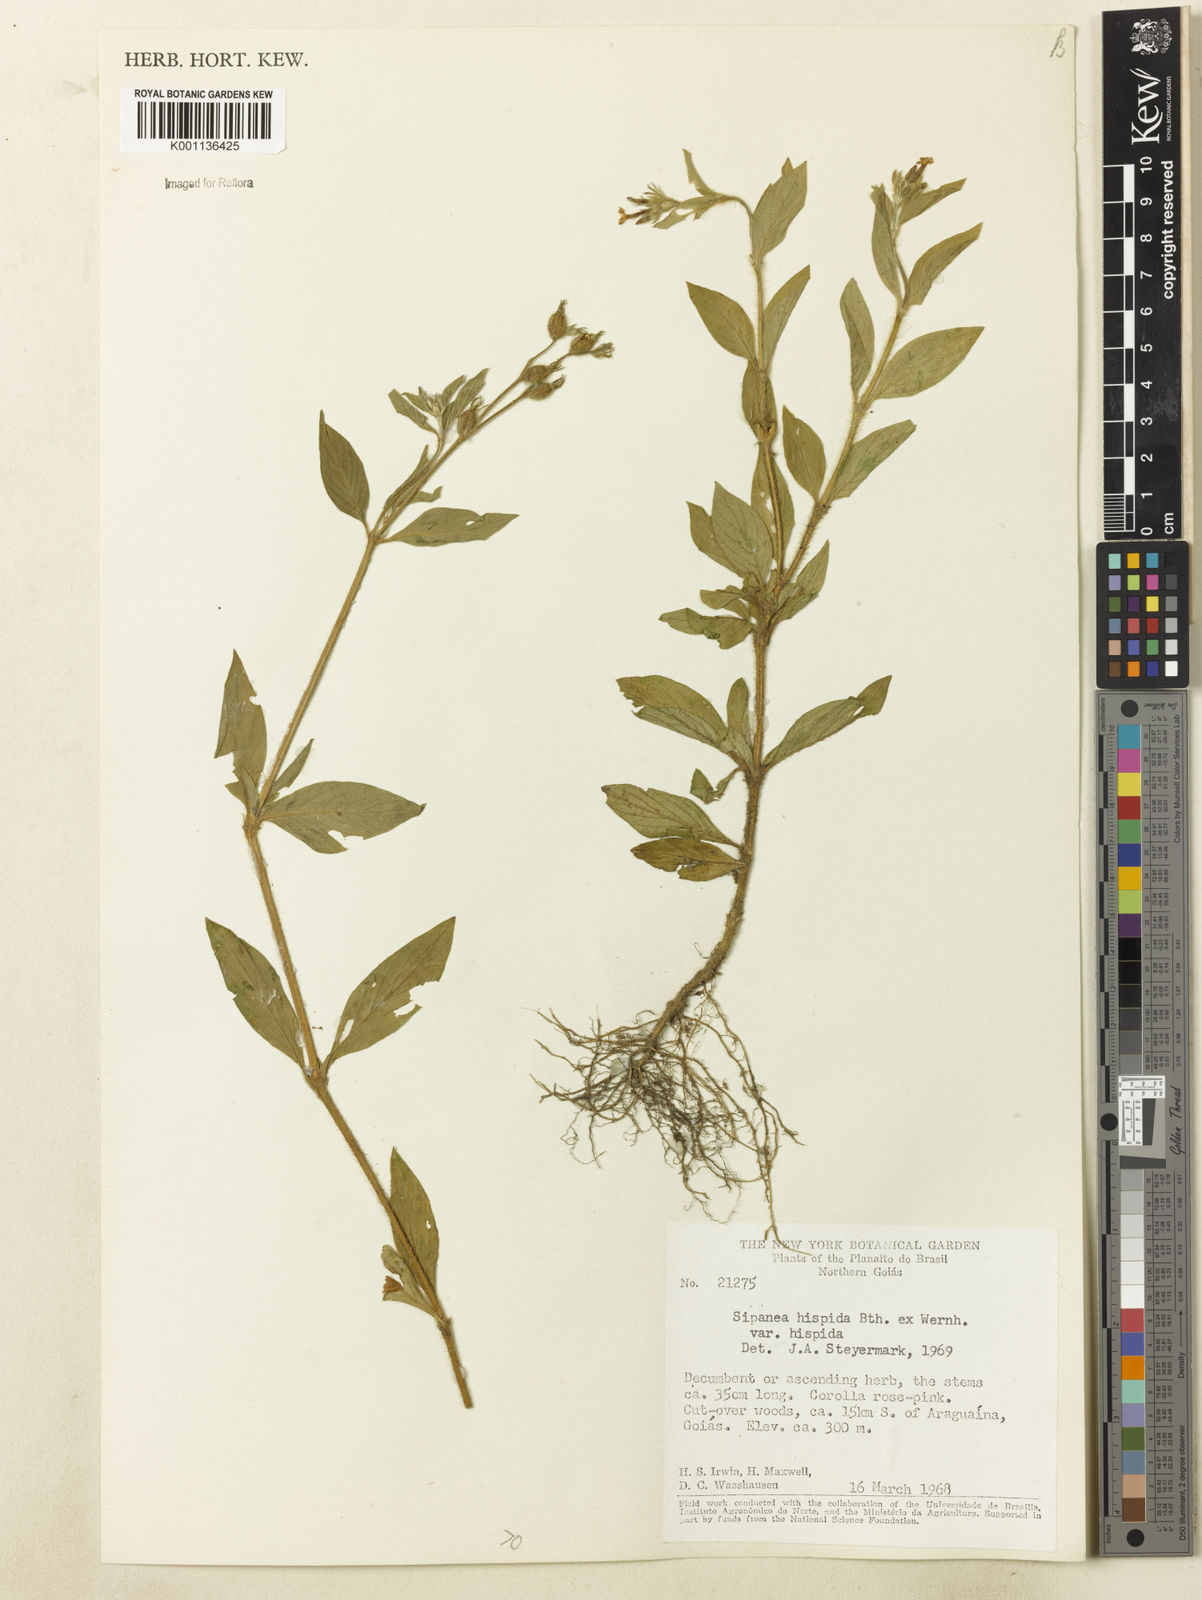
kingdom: Plantae
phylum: Tracheophyta
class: Magnoliopsida
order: Gentianales
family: Rubiaceae
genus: Sipanea
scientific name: Sipanea hispida
